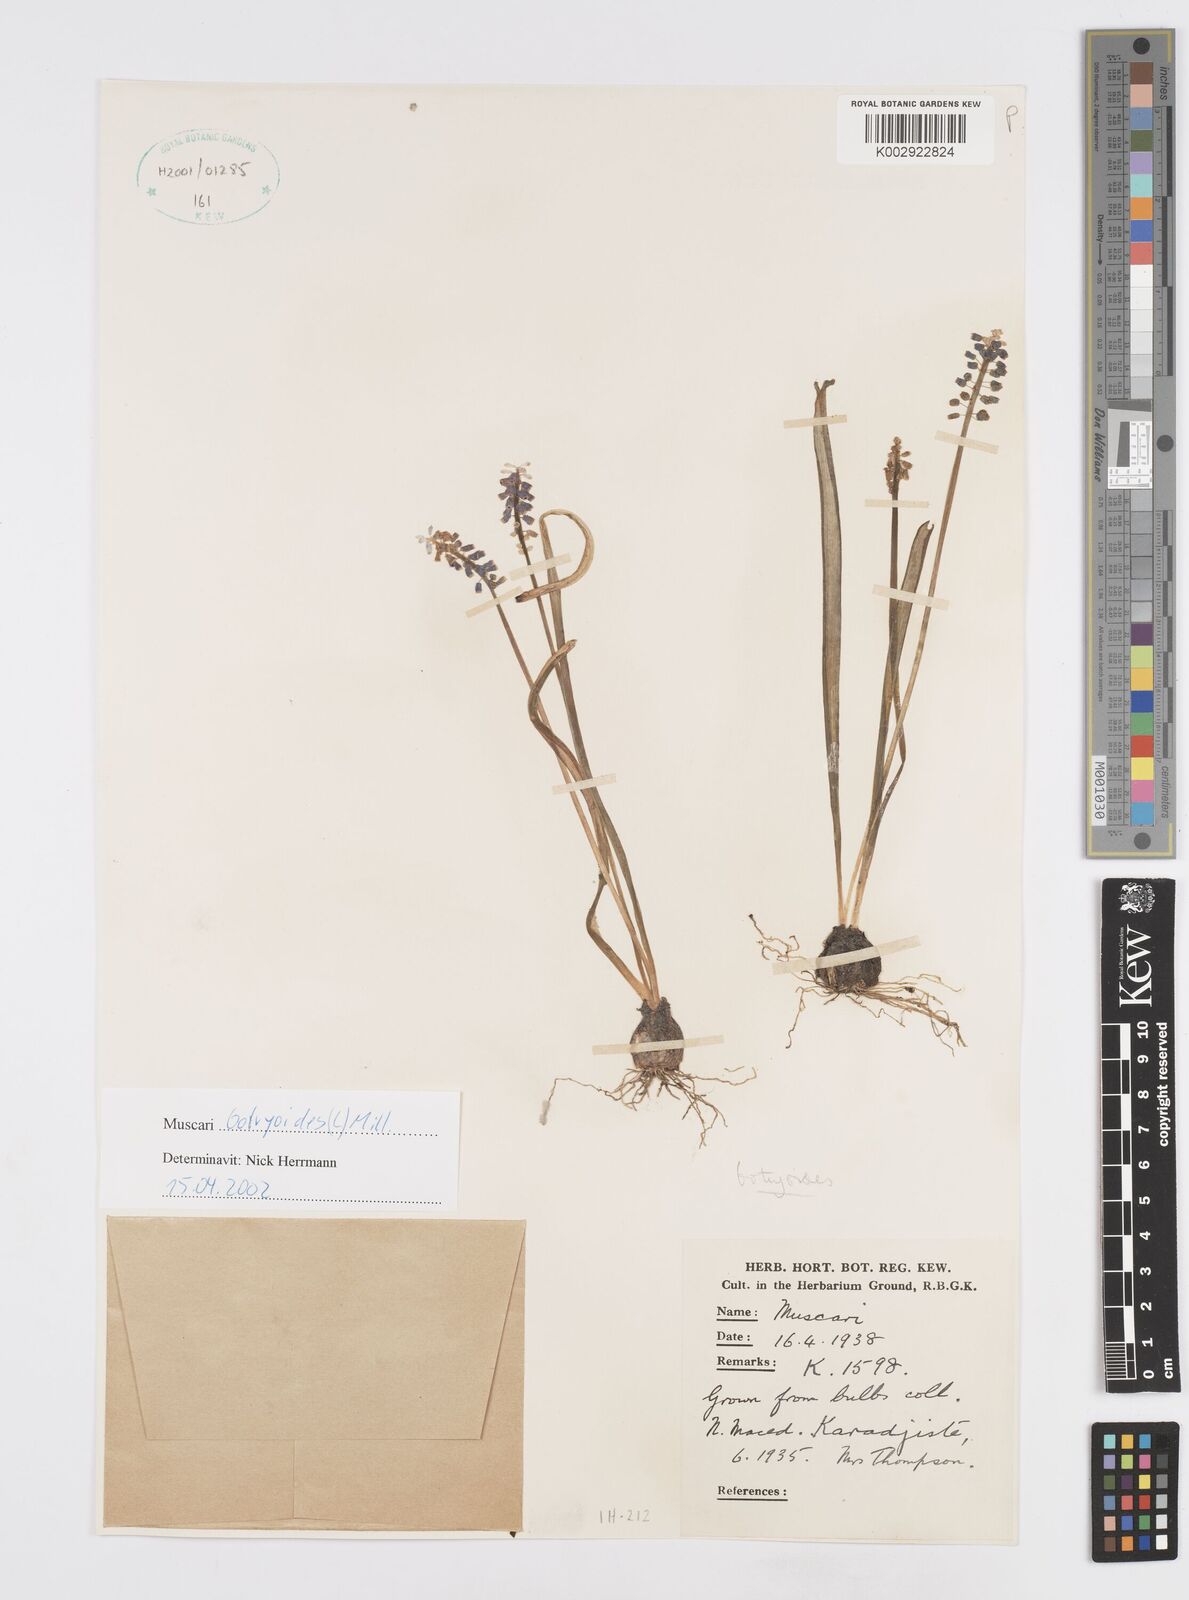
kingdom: Plantae
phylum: Tracheophyta
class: Liliopsida
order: Asparagales
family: Asparagaceae
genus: Muscari
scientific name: Muscari botryoides
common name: Compact grape-hyacinth
